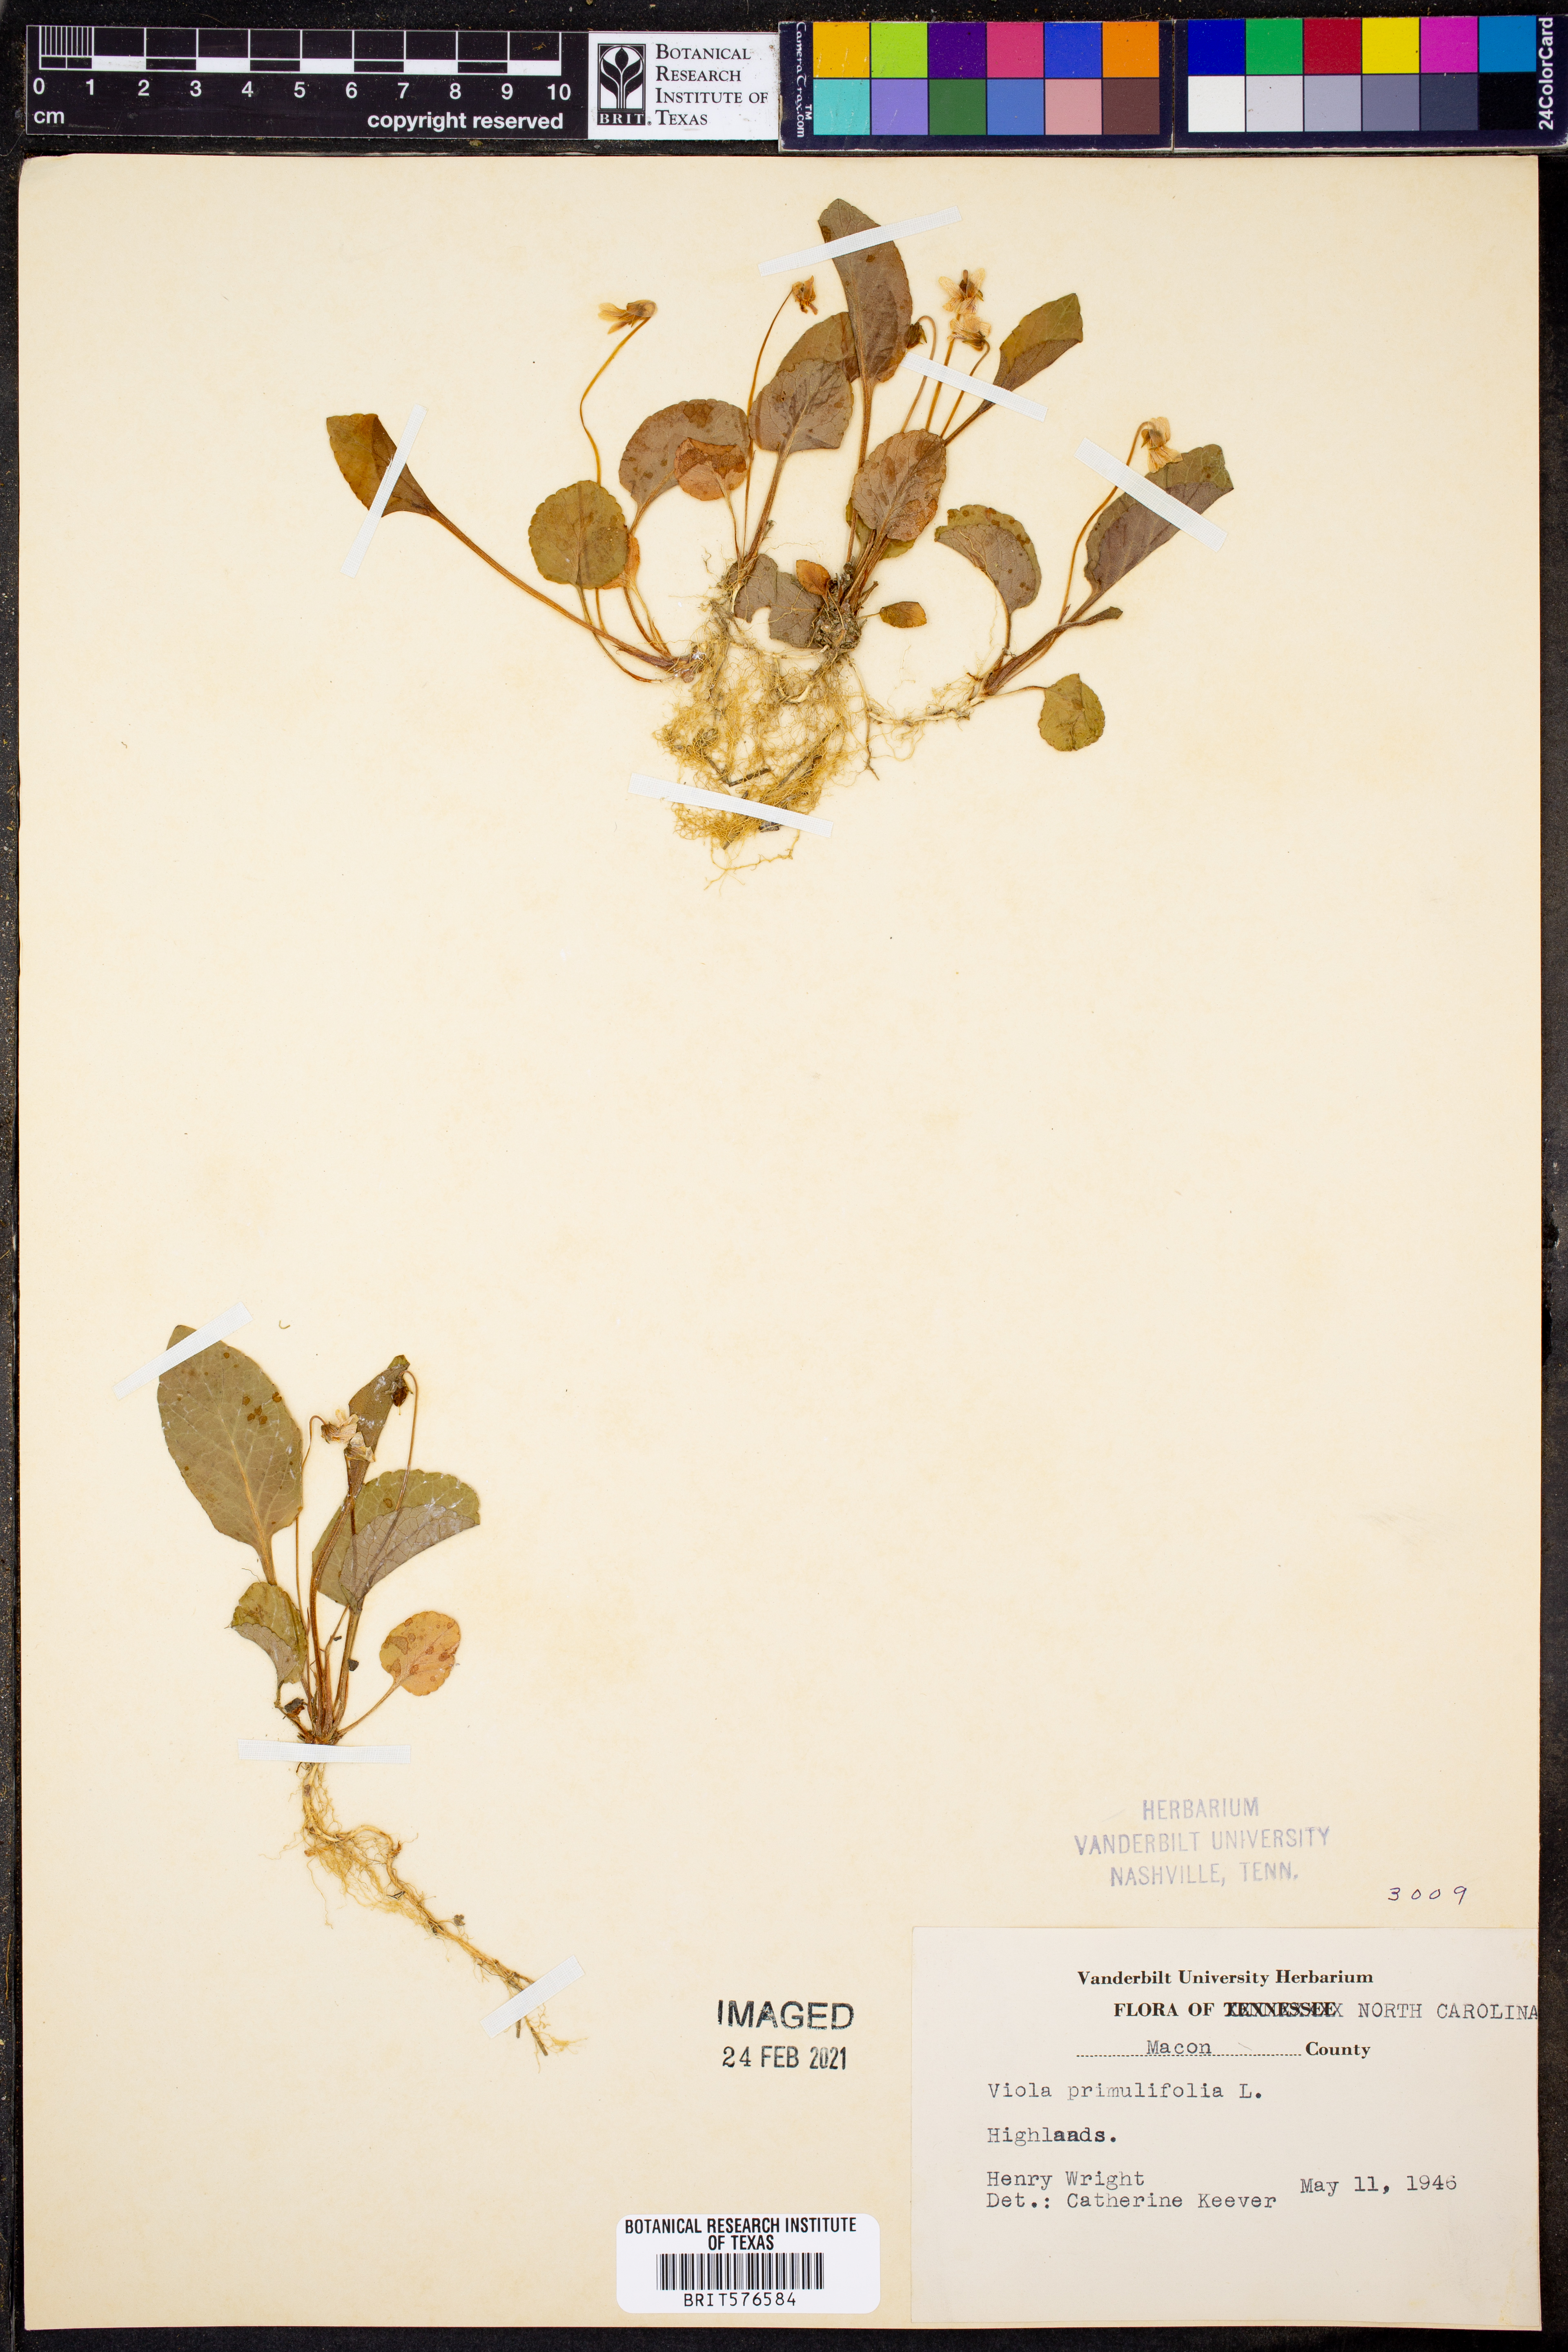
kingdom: Plantae
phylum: Tracheophyta
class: Magnoliopsida
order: Malpighiales
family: Violaceae
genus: Viola
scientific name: Viola primulifolia
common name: Primrose-leaf violet
